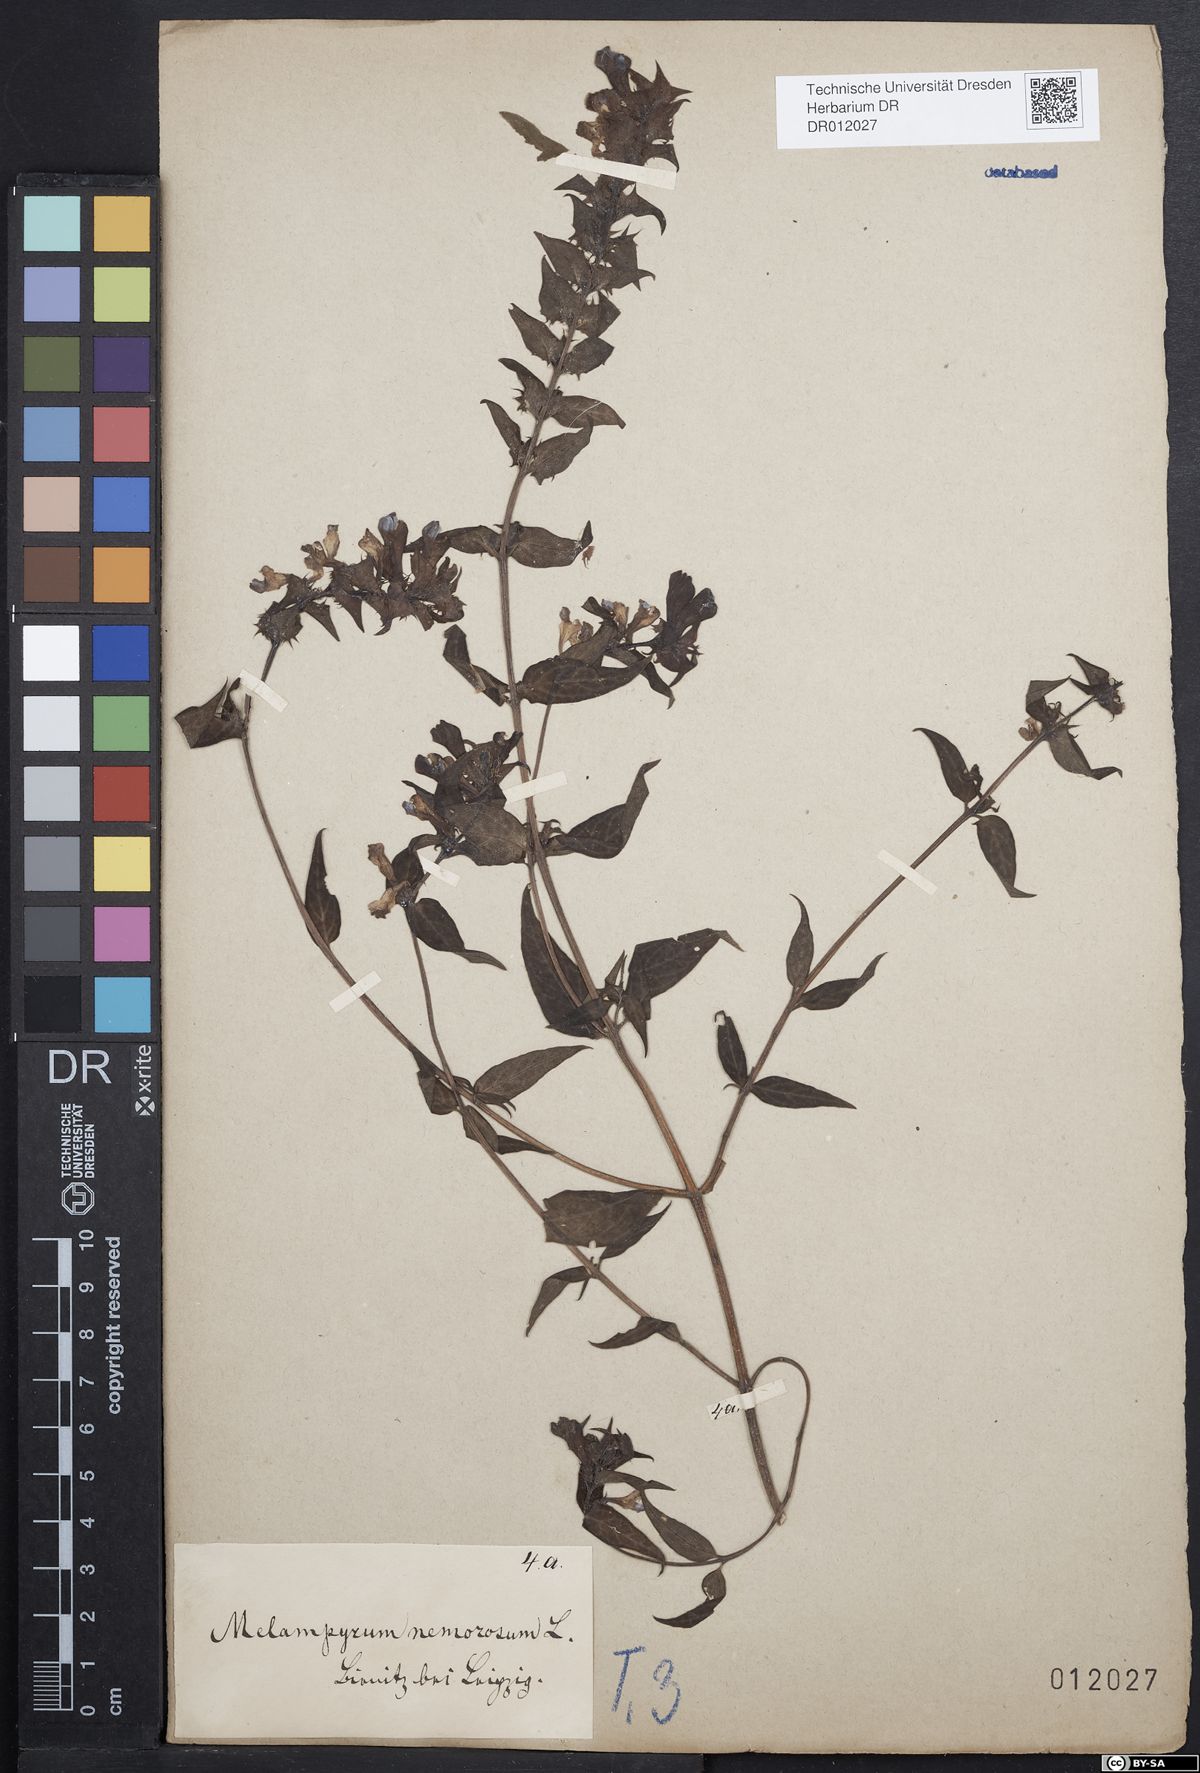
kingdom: Plantae
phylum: Tracheophyta
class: Magnoliopsida
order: Lamiales
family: Orobanchaceae
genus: Melampyrum
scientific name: Melampyrum nemorosum
